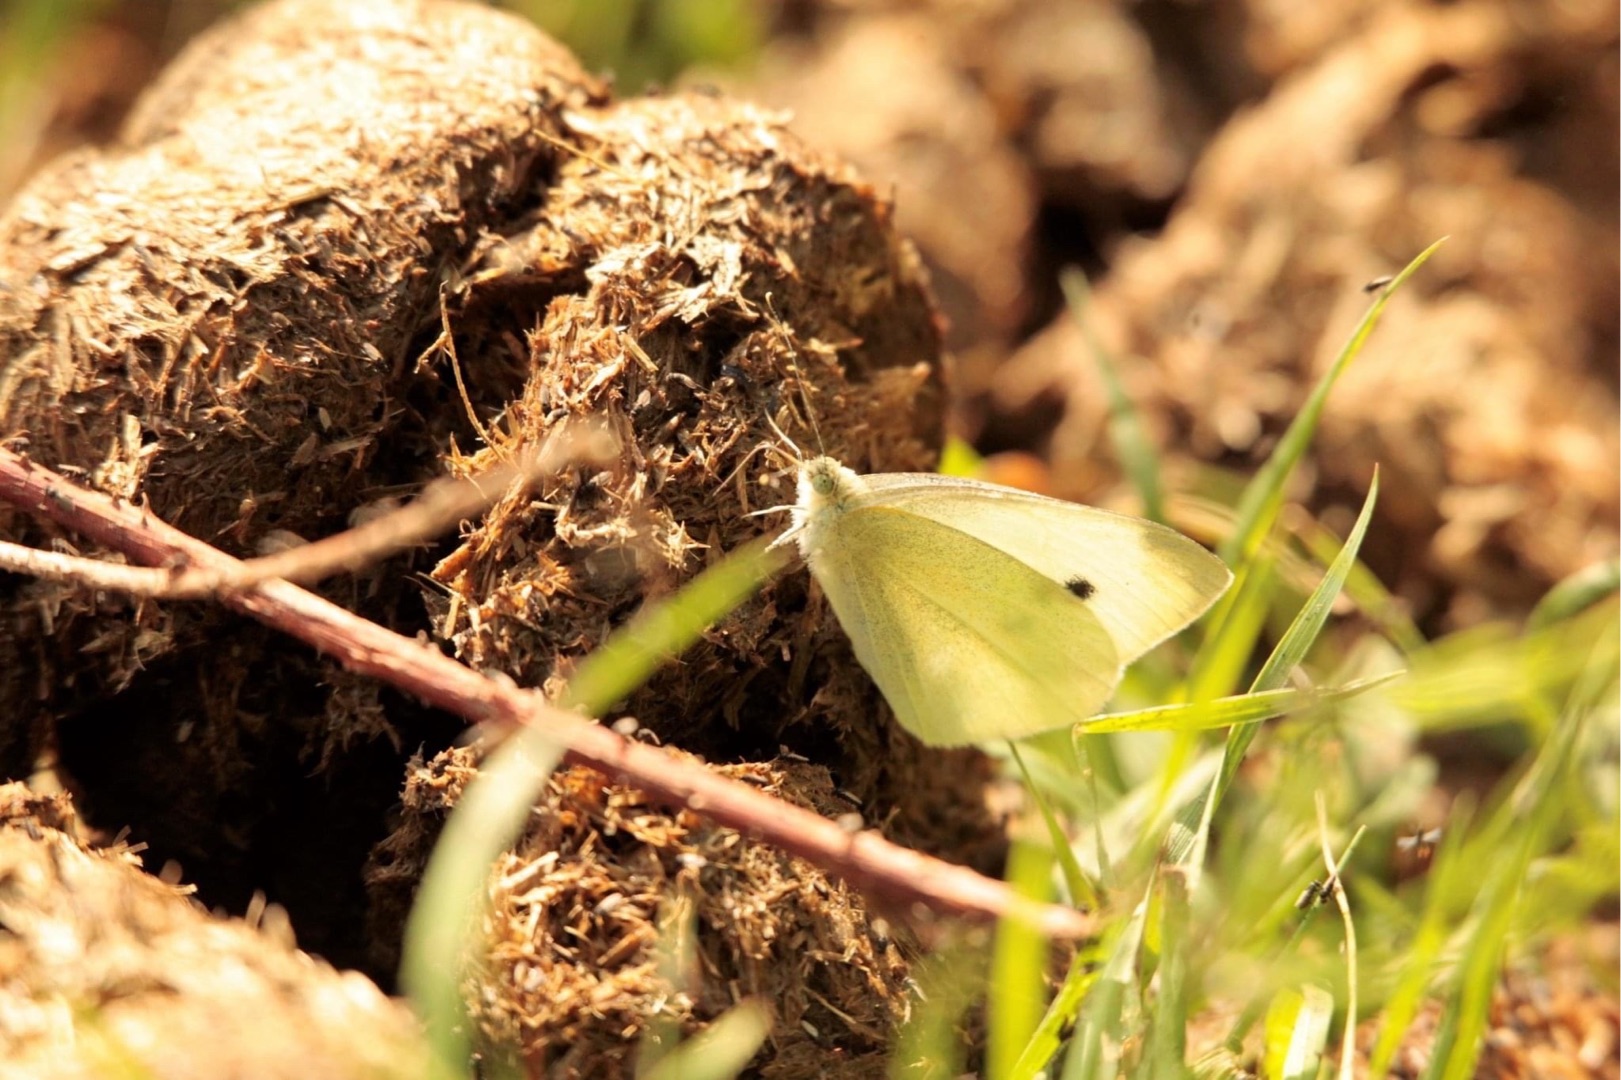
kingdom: Animalia
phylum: Arthropoda
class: Insecta
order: Lepidoptera
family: Pieridae
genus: Pieris
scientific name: Pieris rapae
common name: Lille kålsommerfugl
